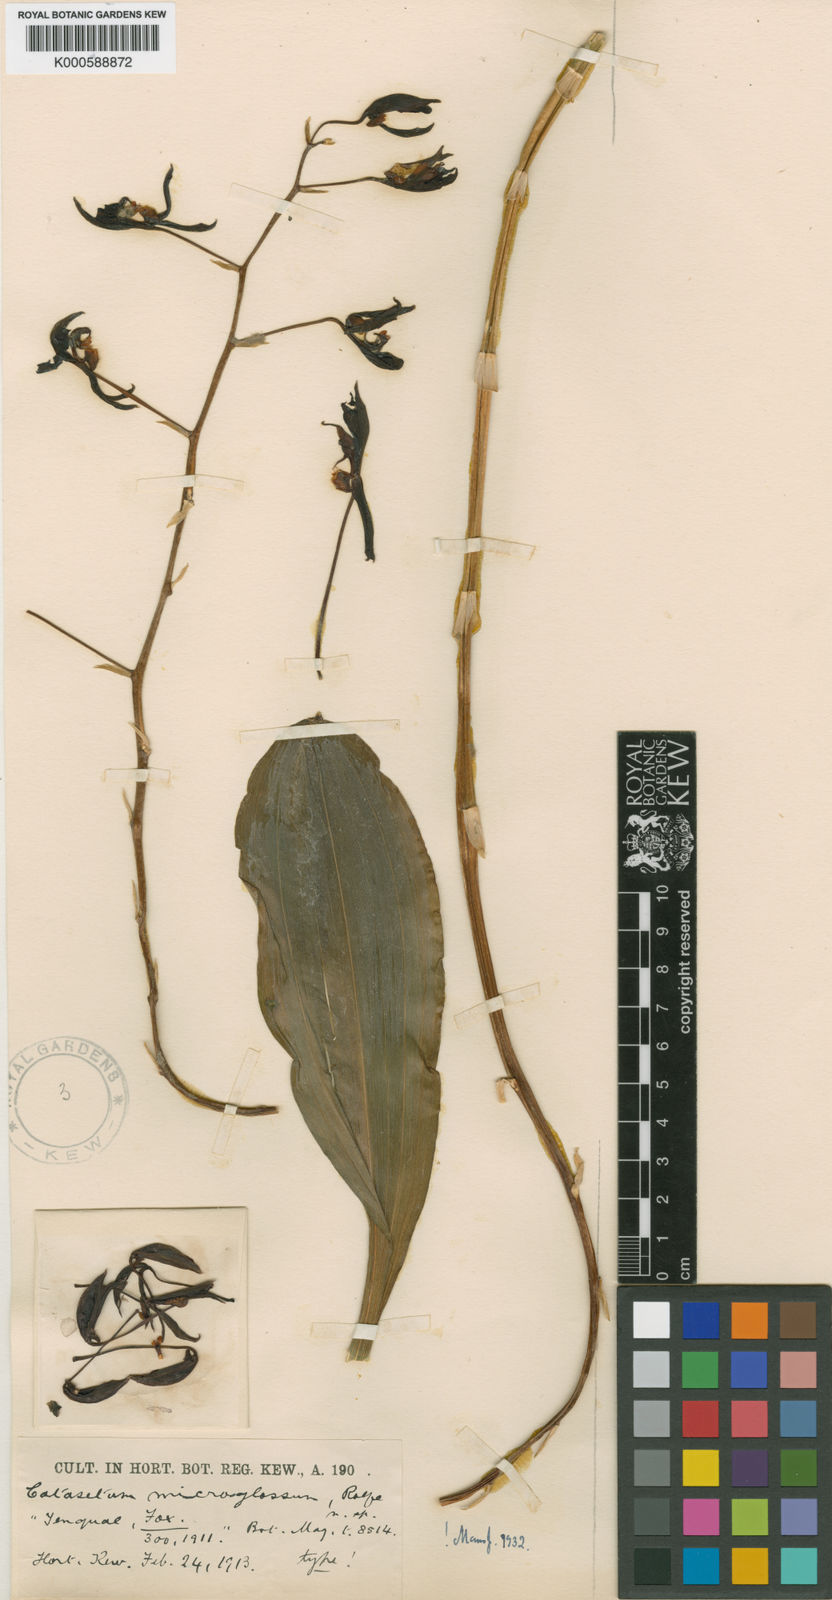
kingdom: Plantae
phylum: Tracheophyta
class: Liliopsida
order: Asparagales
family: Orchidaceae
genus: Catasetum
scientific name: Catasetum microglossum
